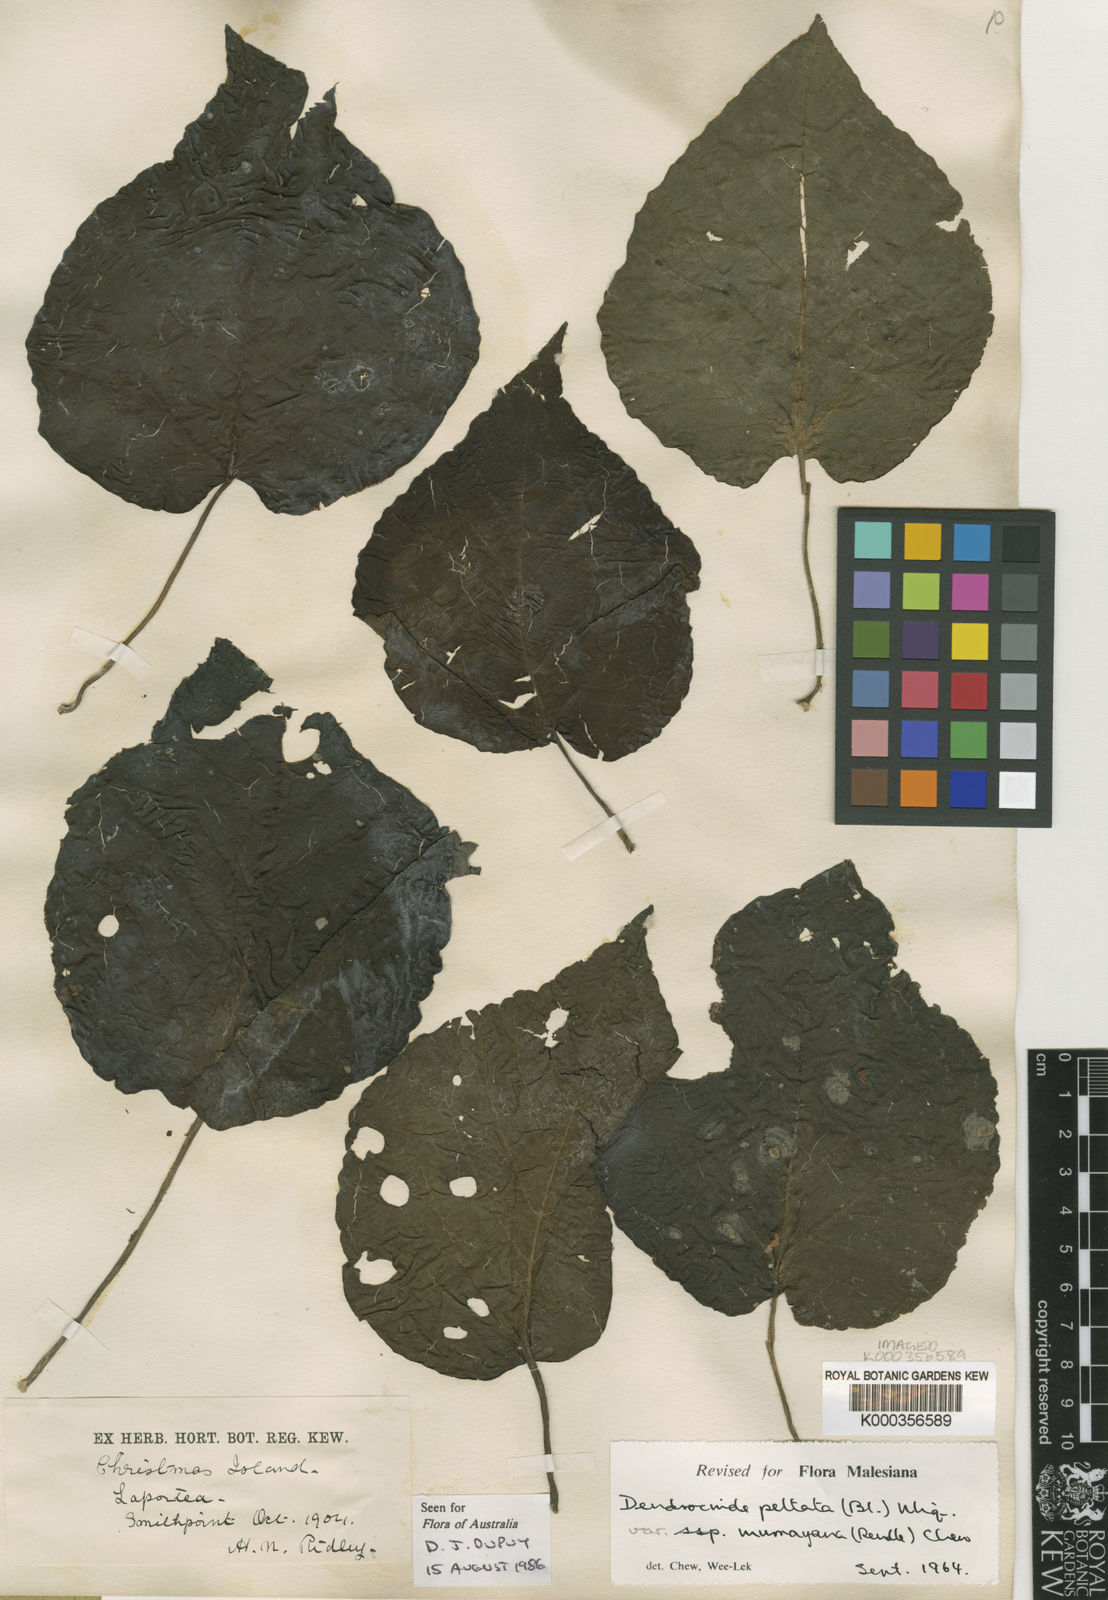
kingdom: Plantae
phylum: Tracheophyta
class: Magnoliopsida
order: Rosales
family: Urticaceae
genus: Dendrocnide
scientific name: Dendrocnide peltata
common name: Stinging tree
